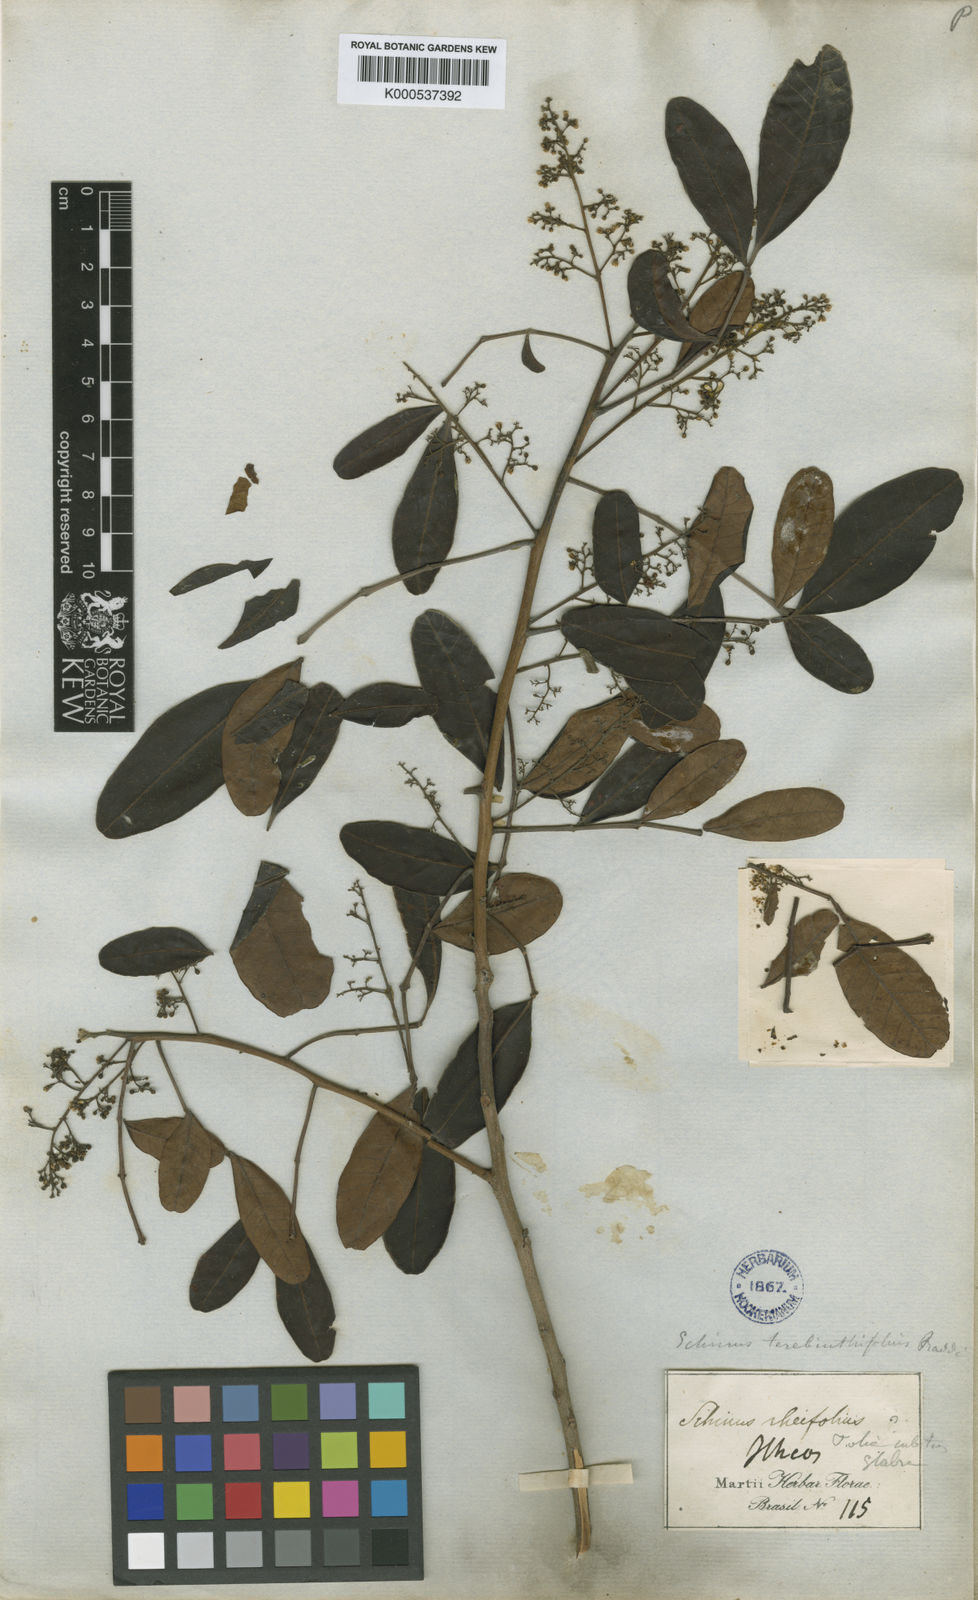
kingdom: Plantae
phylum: Tracheophyta
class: Magnoliopsida
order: Sapindales
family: Anacardiaceae
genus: Schinus
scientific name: Schinus terebinthifolia
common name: Brazilian peppertree
